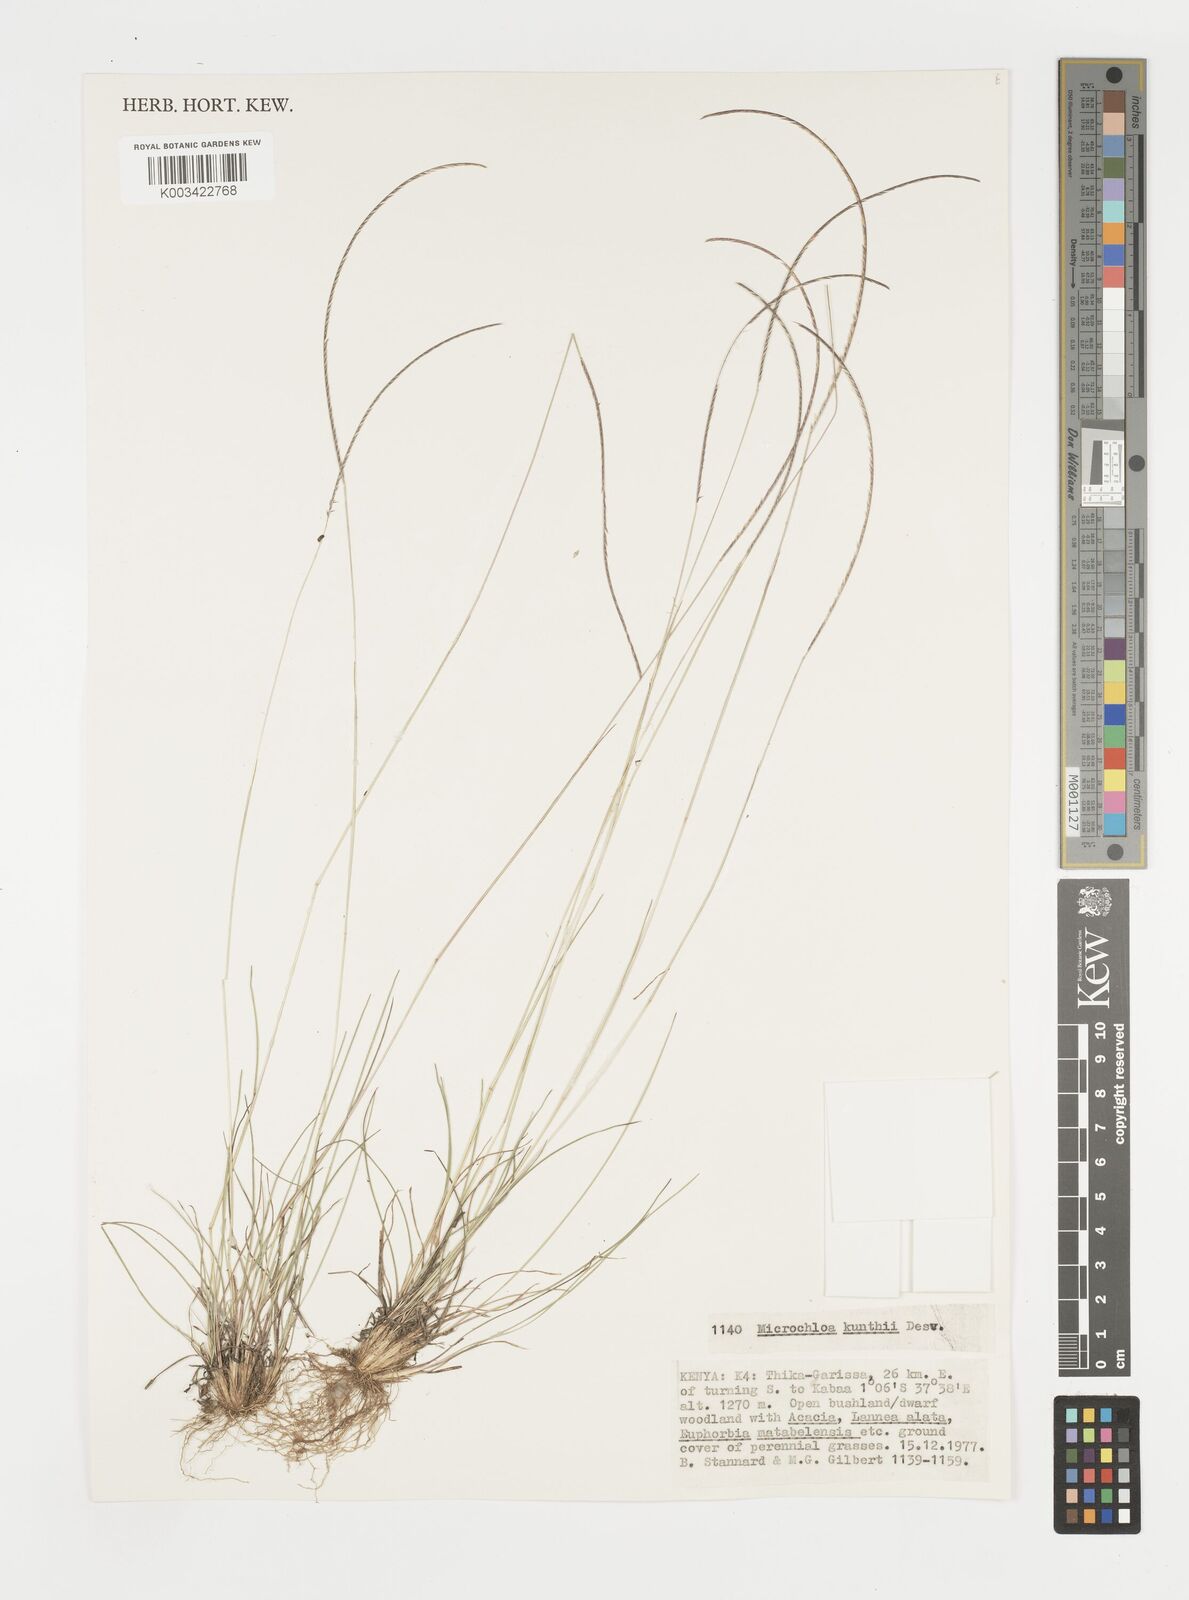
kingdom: Plantae
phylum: Tracheophyta
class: Liliopsida
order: Poales
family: Poaceae
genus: Microchloa
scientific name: Microchloa kunthii
